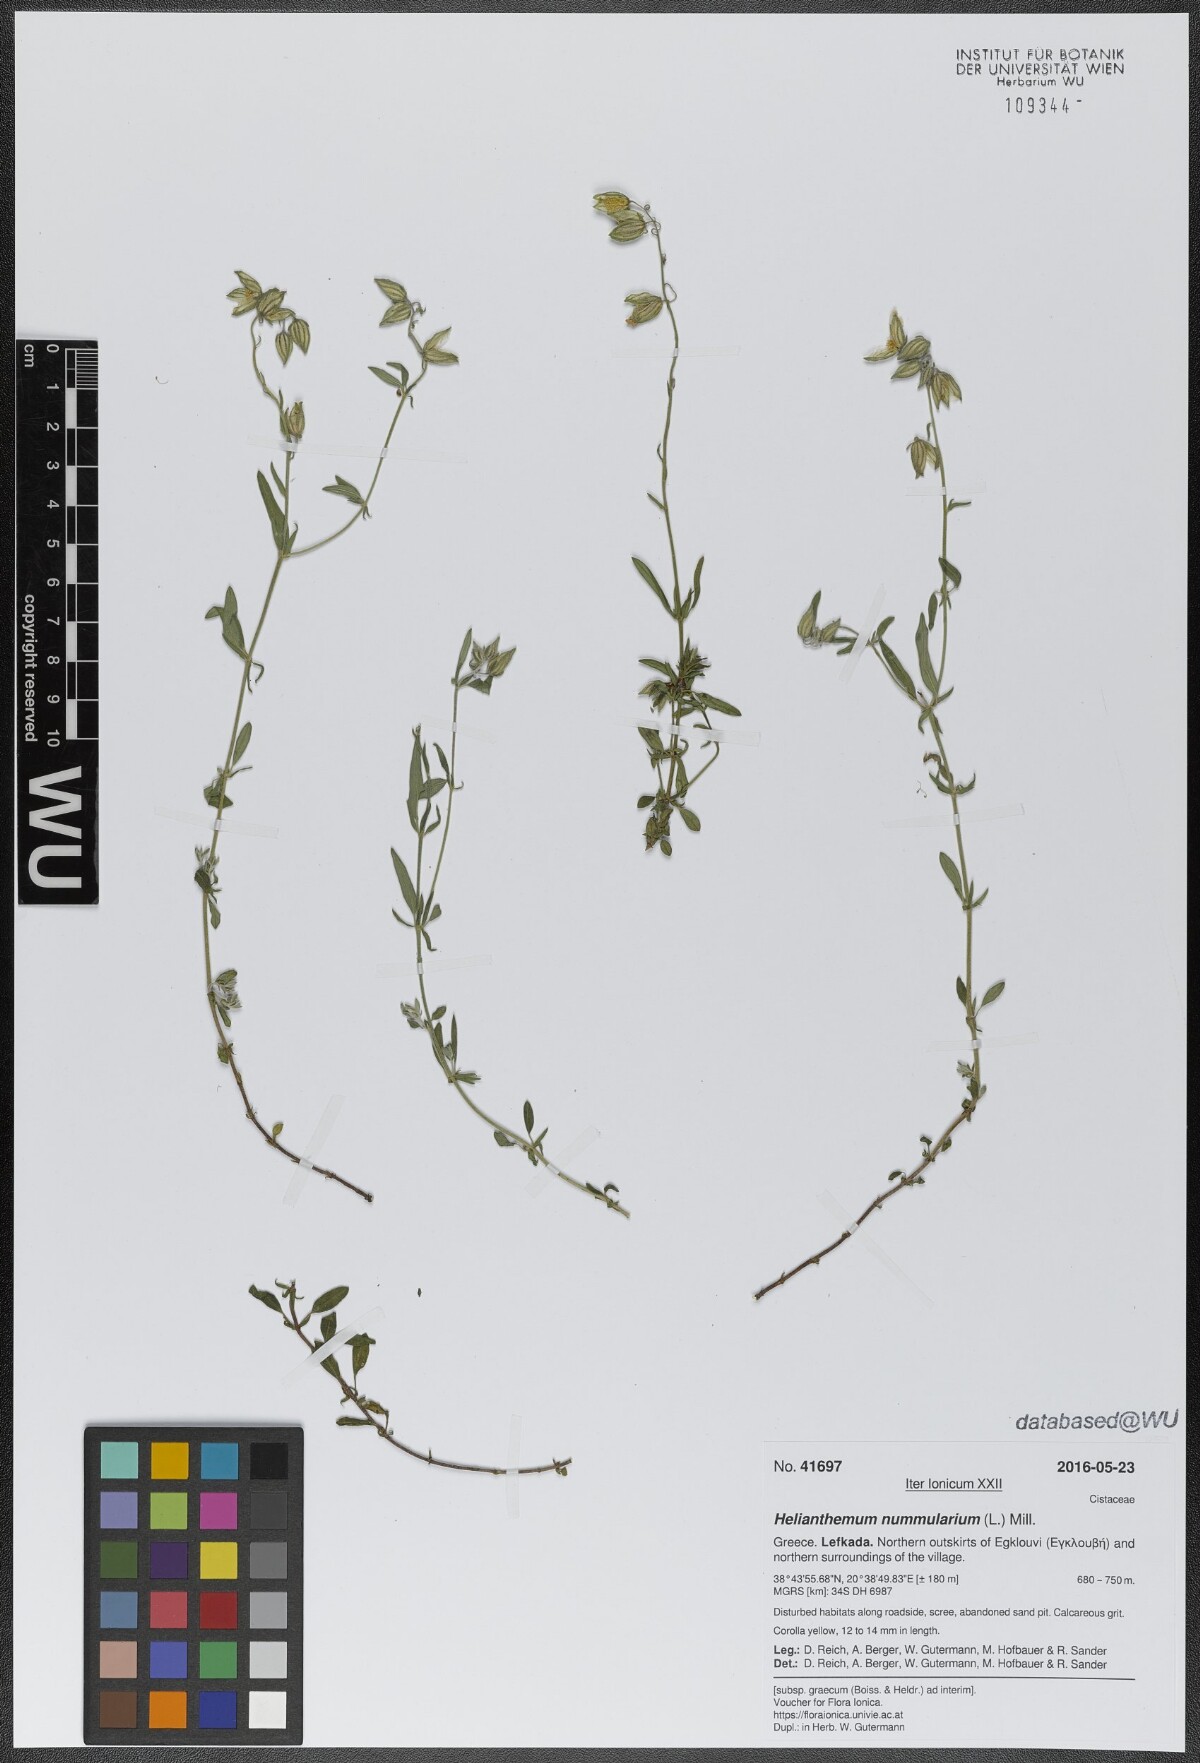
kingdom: Plantae
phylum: Tracheophyta
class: Magnoliopsida
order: Malvales
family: Cistaceae
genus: Helianthemum
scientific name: Helianthemum nummularium
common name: Common rock-rose
